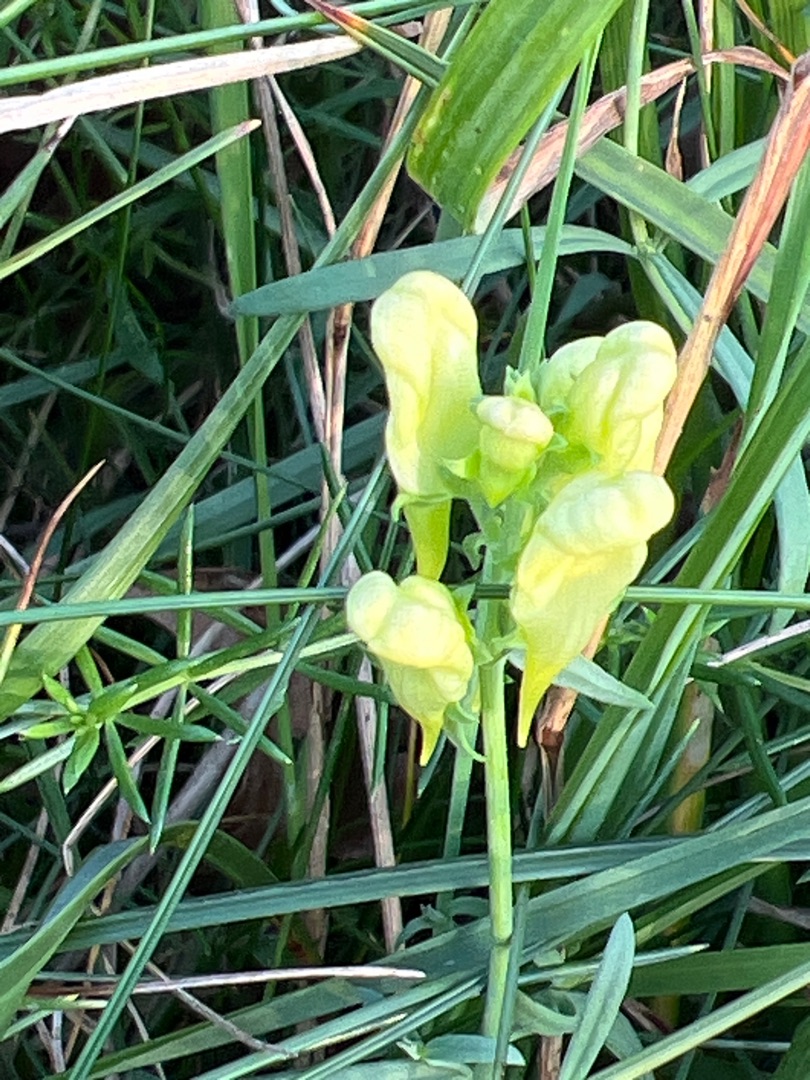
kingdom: Plantae
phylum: Tracheophyta
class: Magnoliopsida
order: Lamiales
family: Plantaginaceae
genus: Linaria
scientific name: Linaria vulgaris
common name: Almindelig torskemund
